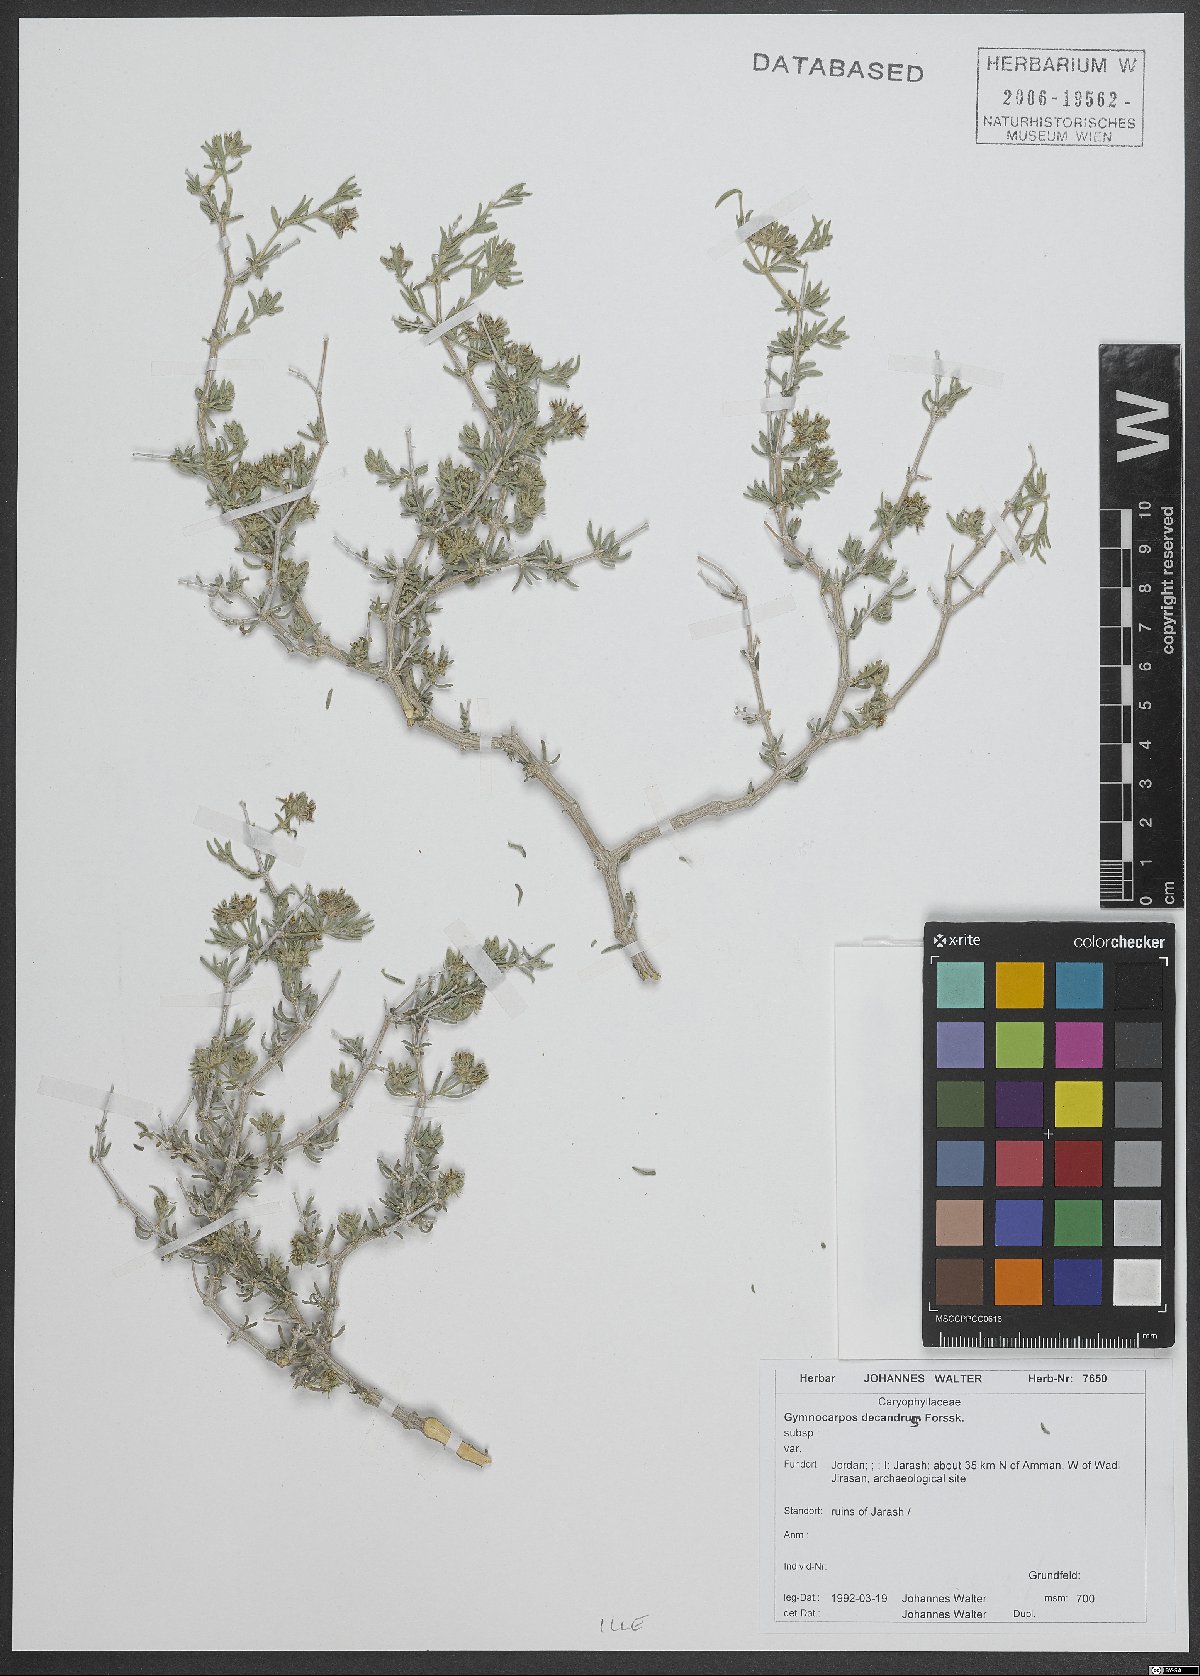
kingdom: Plantae
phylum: Tracheophyta
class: Magnoliopsida
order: Caryophyllales
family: Caryophyllaceae
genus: Gymnocarpos
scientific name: Gymnocarpos decandrus
